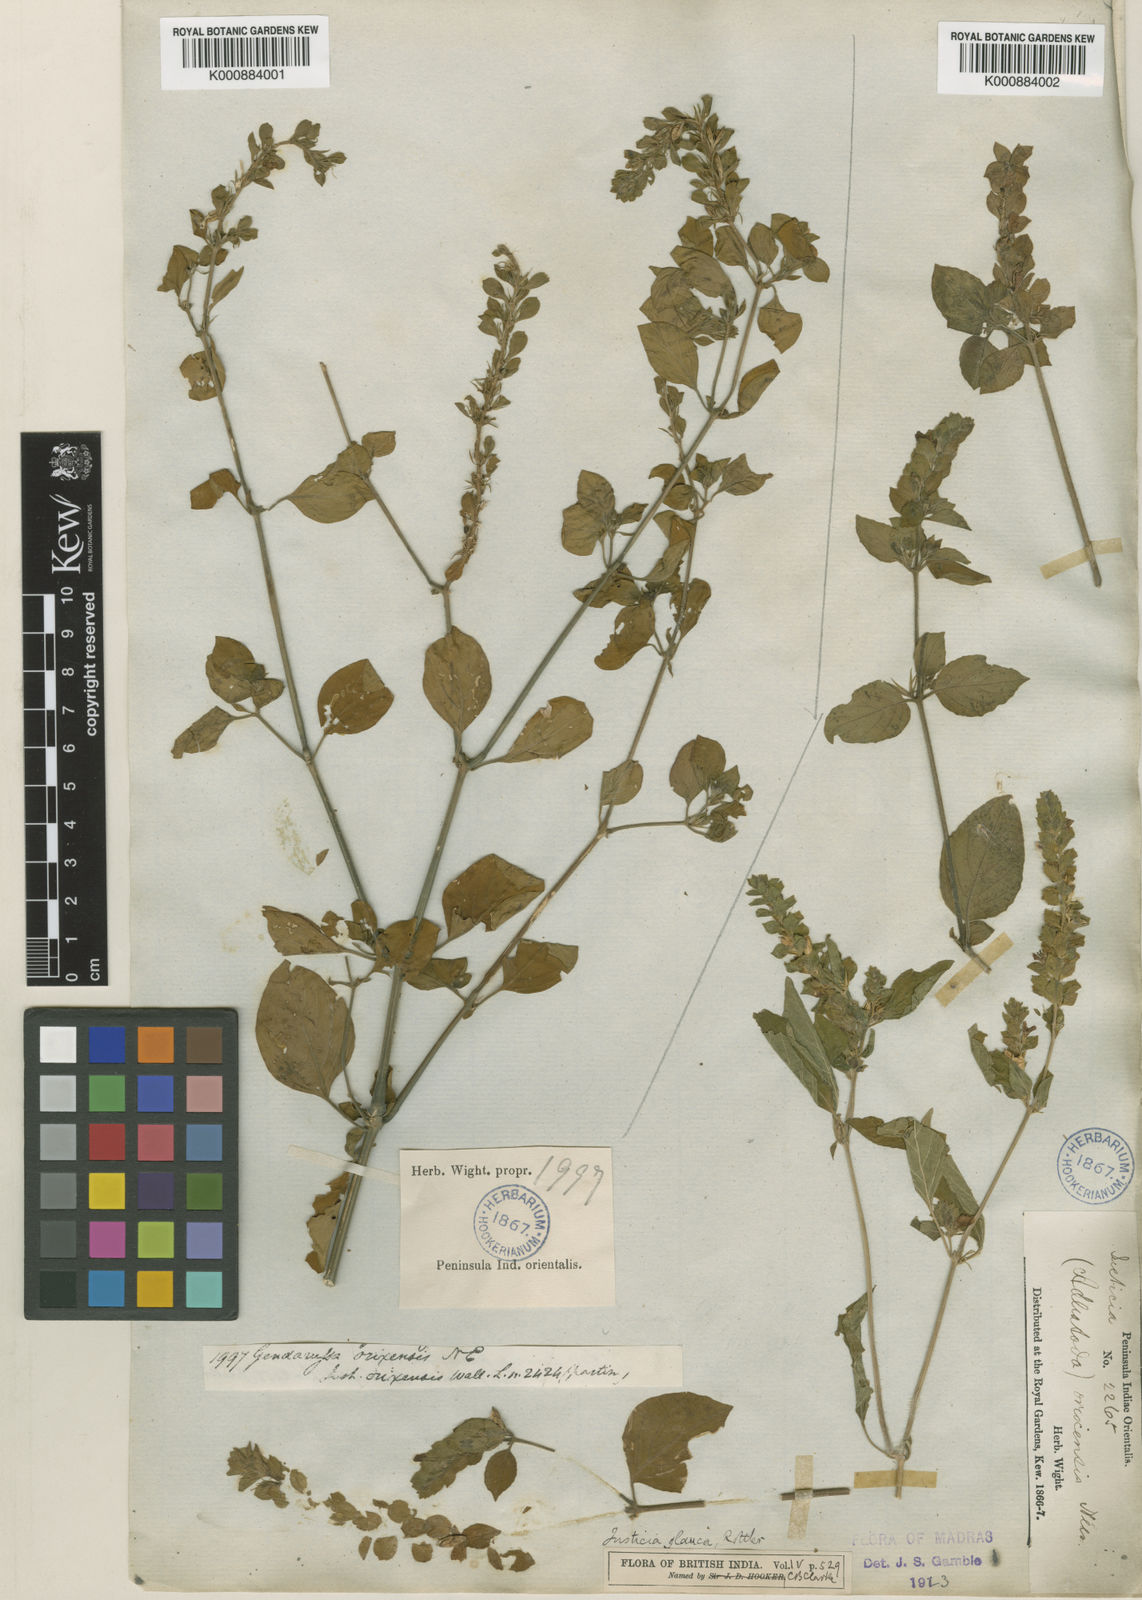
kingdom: Plantae
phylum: Tracheophyta
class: Magnoliopsida
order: Lamiales
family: Acanthaceae
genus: Justicia
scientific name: Justicia glauca
